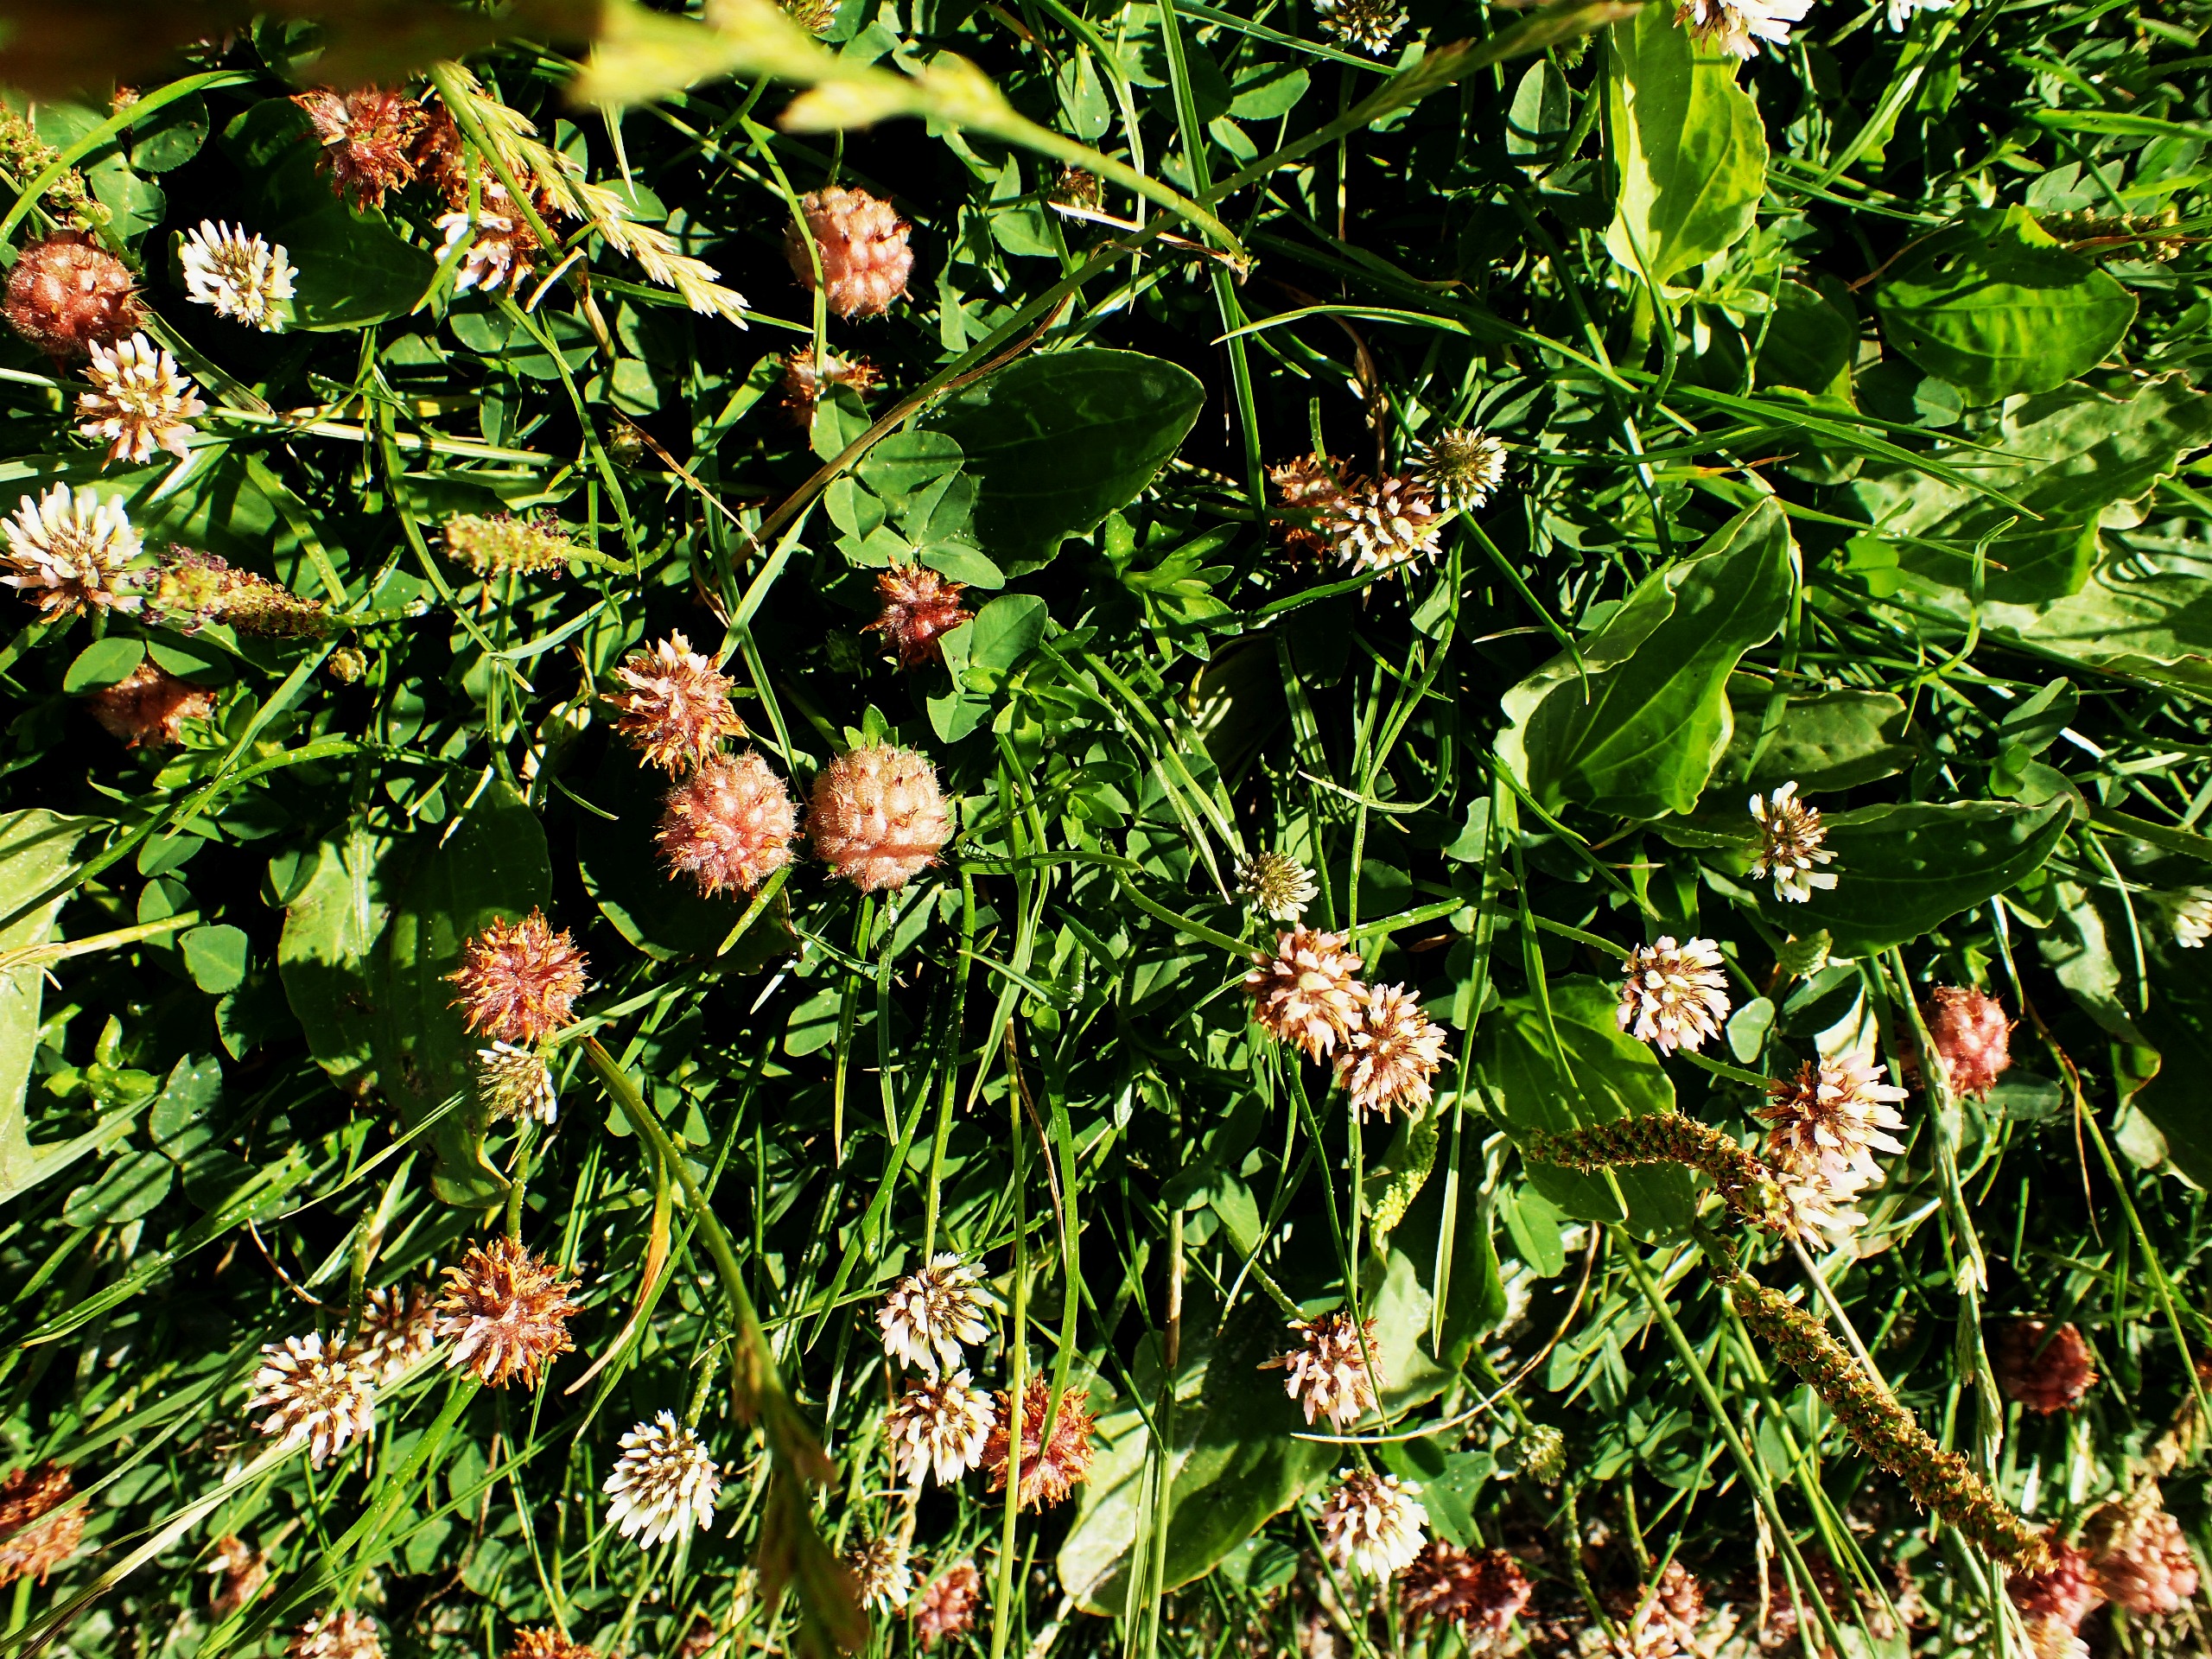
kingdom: Plantae
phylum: Tracheophyta
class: Magnoliopsida
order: Fabales
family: Fabaceae
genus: Trifolium
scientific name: Trifolium fragiferum
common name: Jordbær-kløver
